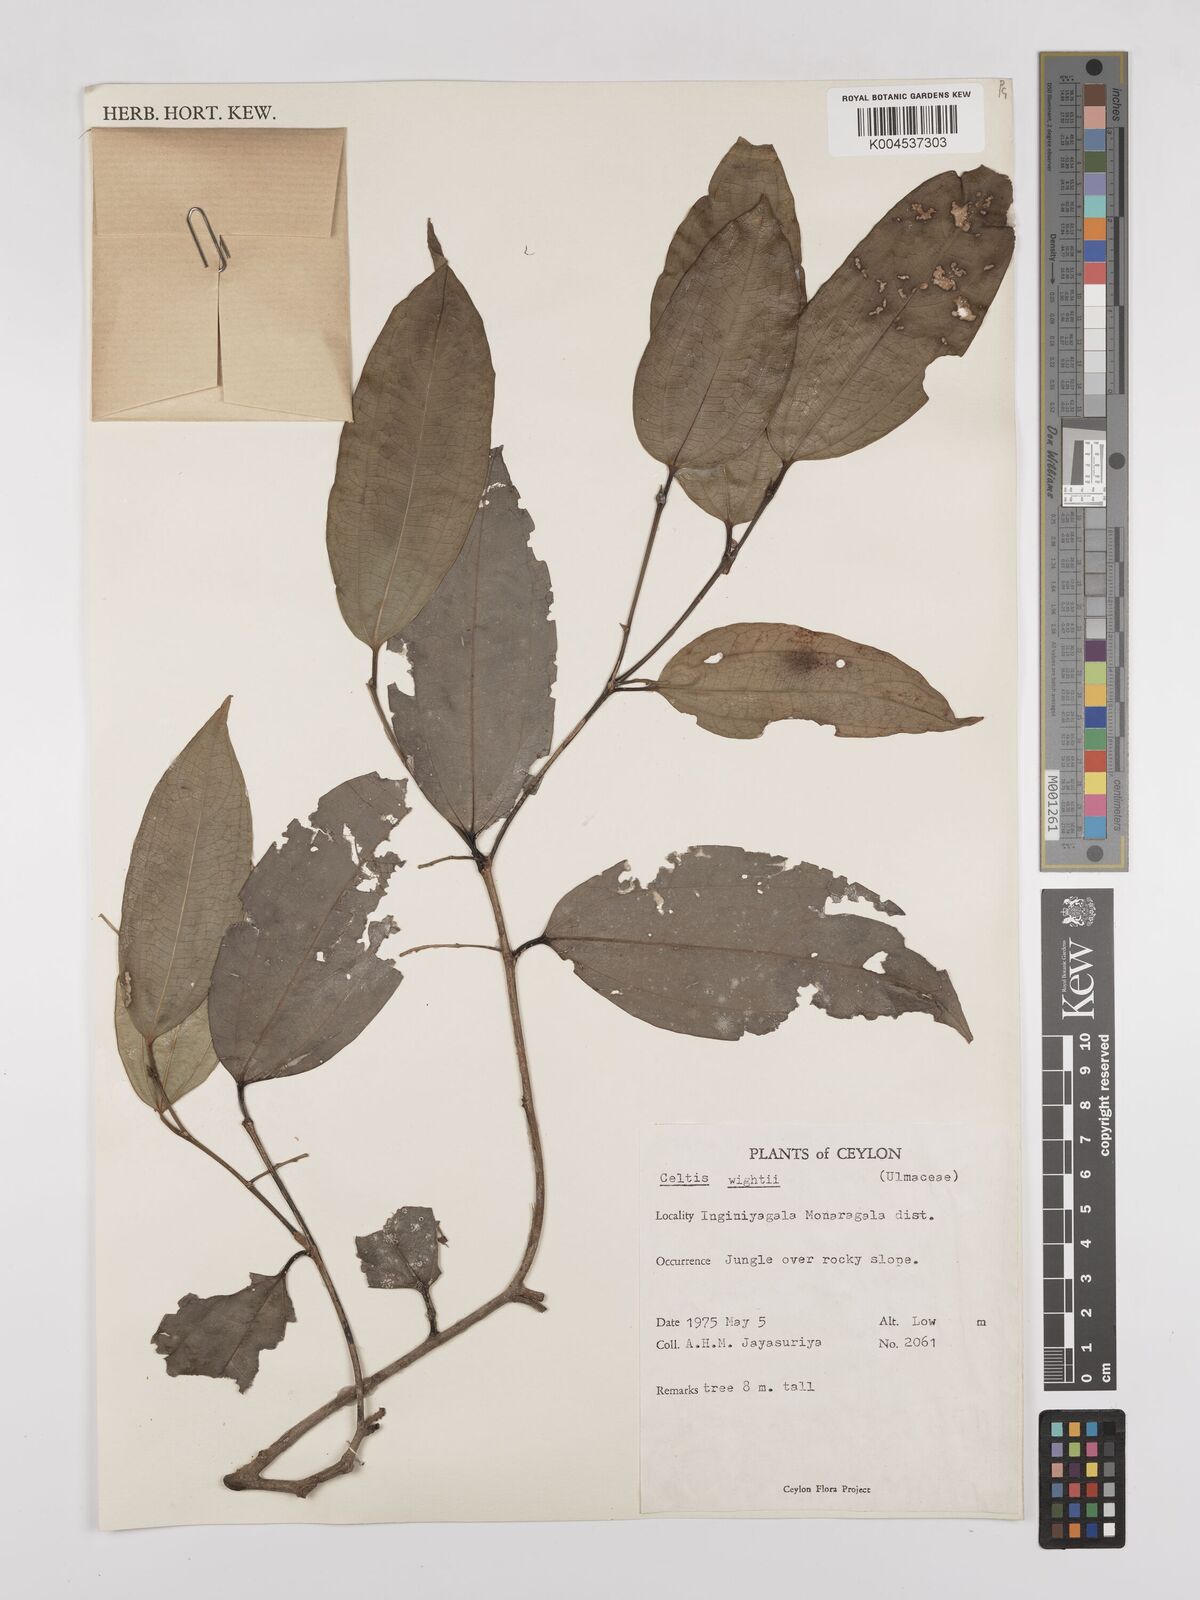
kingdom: Plantae
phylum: Tracheophyta
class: Magnoliopsida
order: Rosales
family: Cannabaceae
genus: Celtis
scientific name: Celtis philippensis
